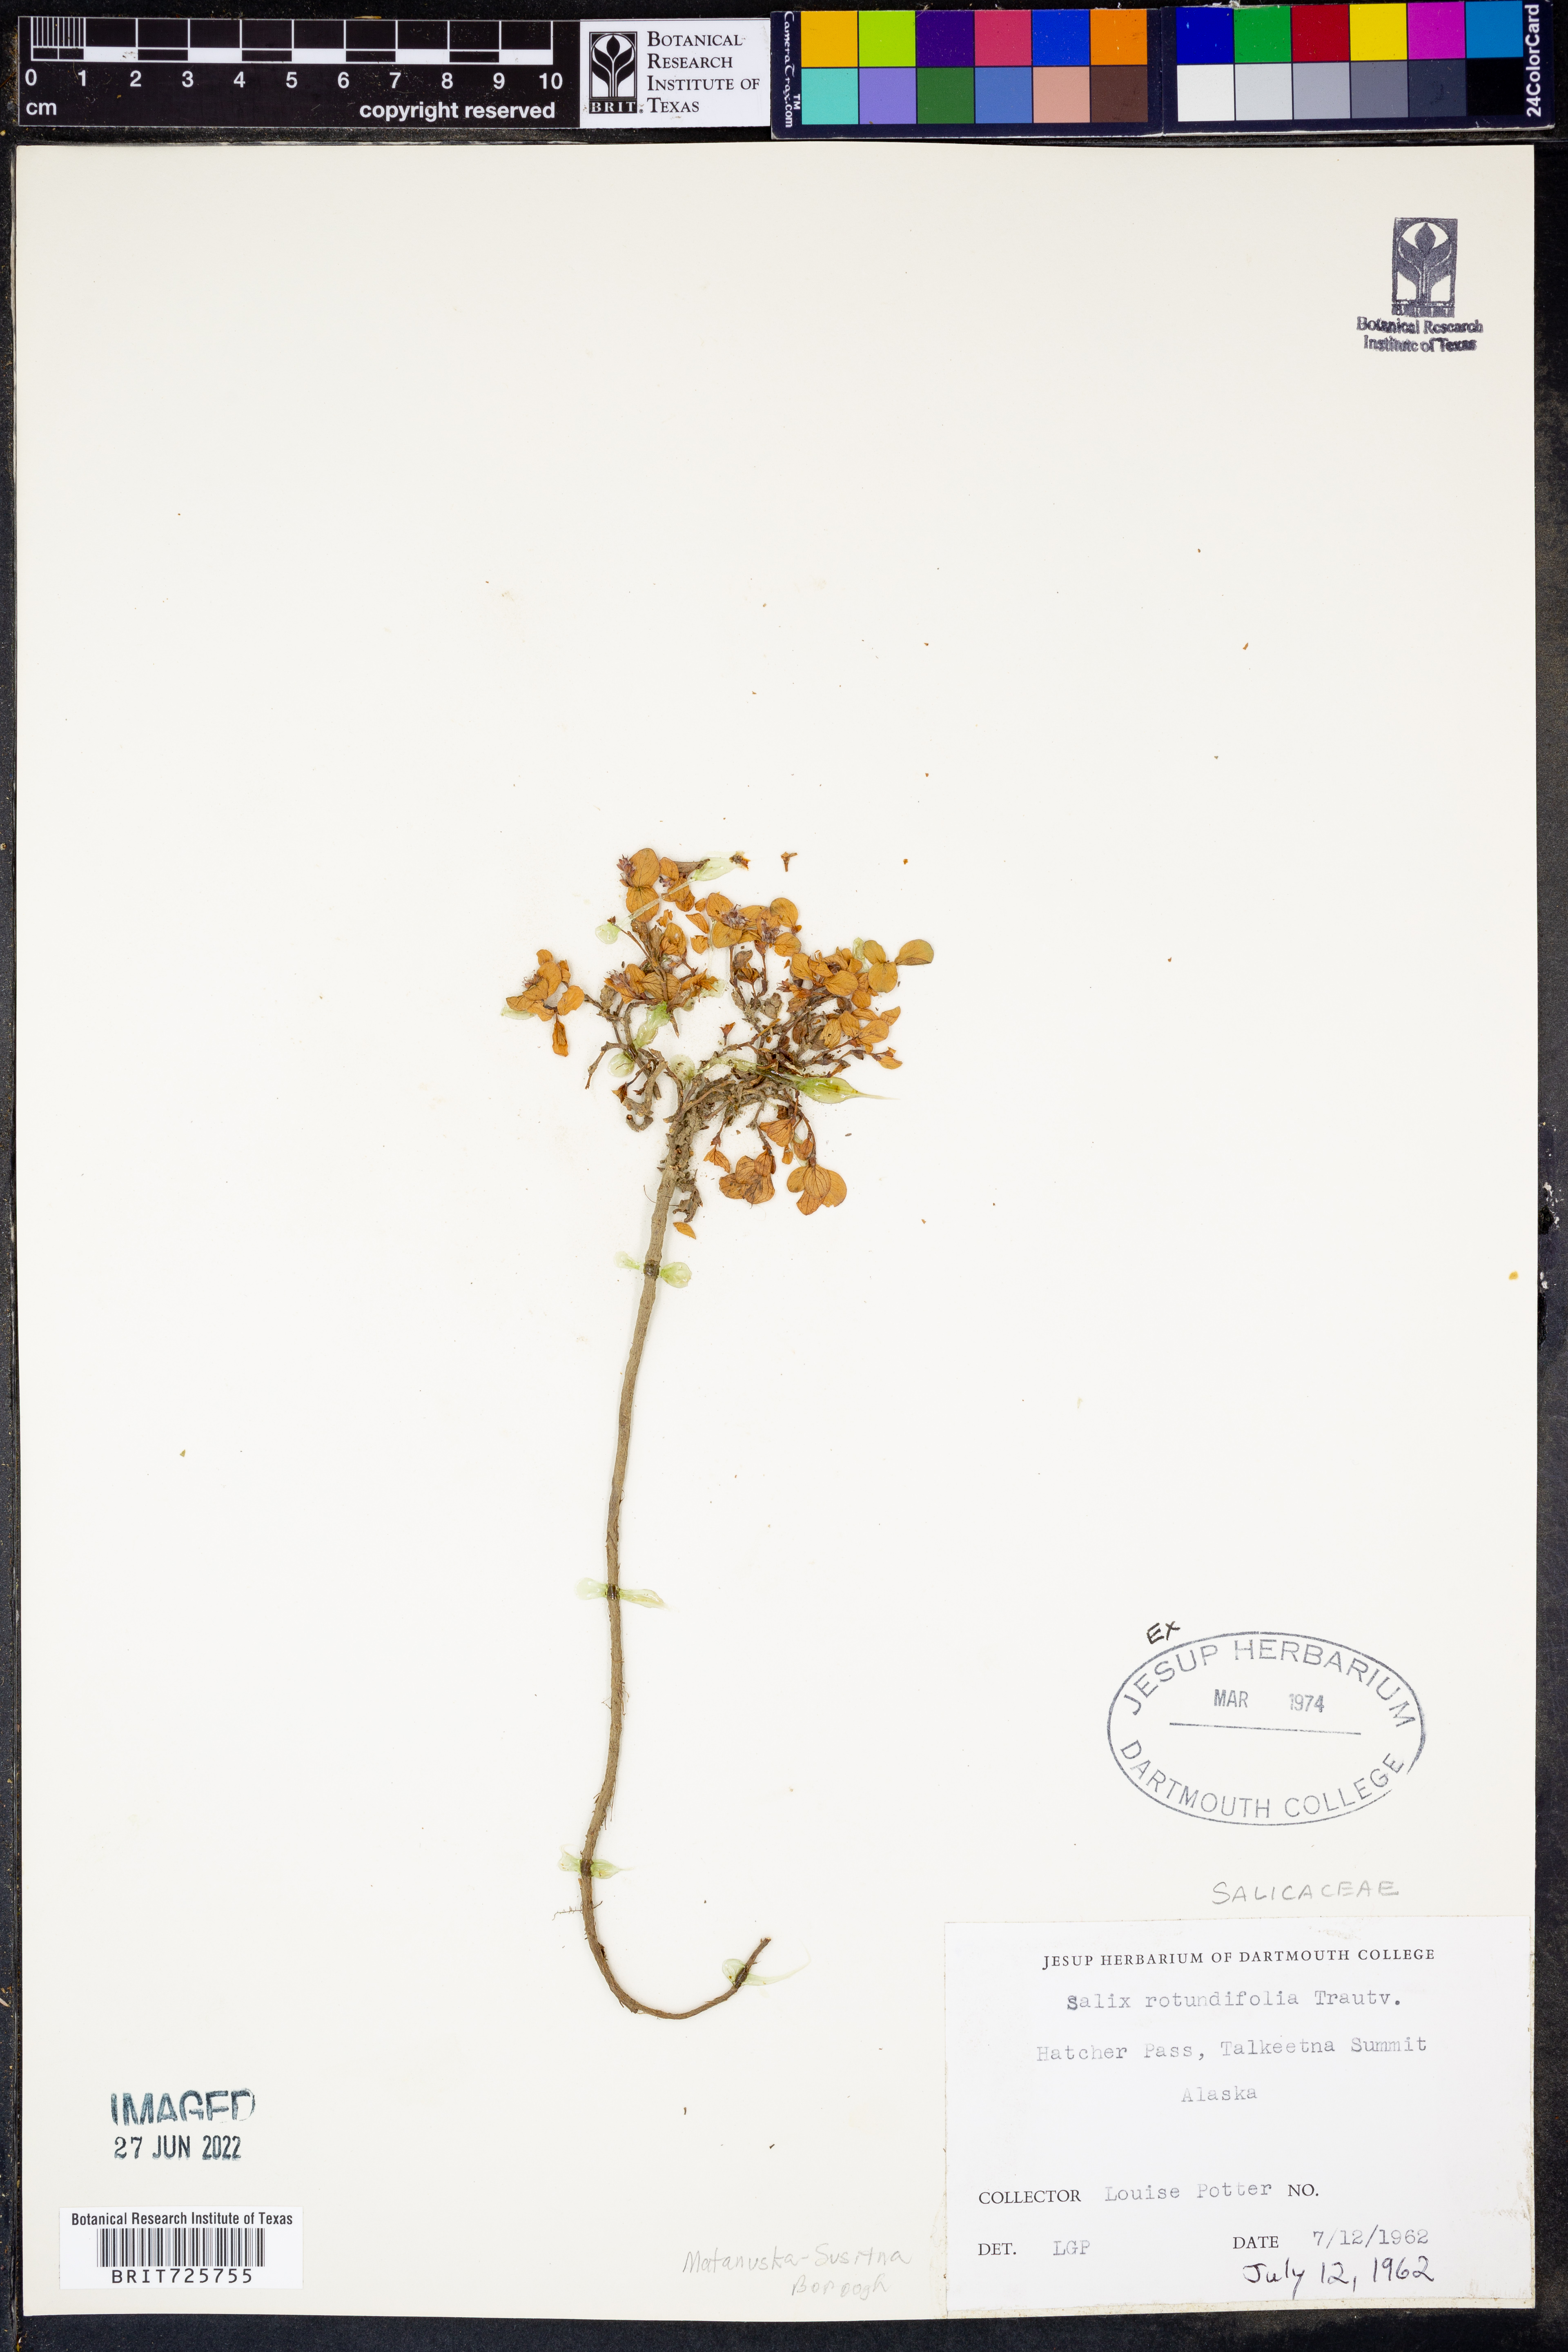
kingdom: Plantae
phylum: Tracheophyta
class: Magnoliopsida
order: Malpighiales
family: Salicaceae
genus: Salix
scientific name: Salix
